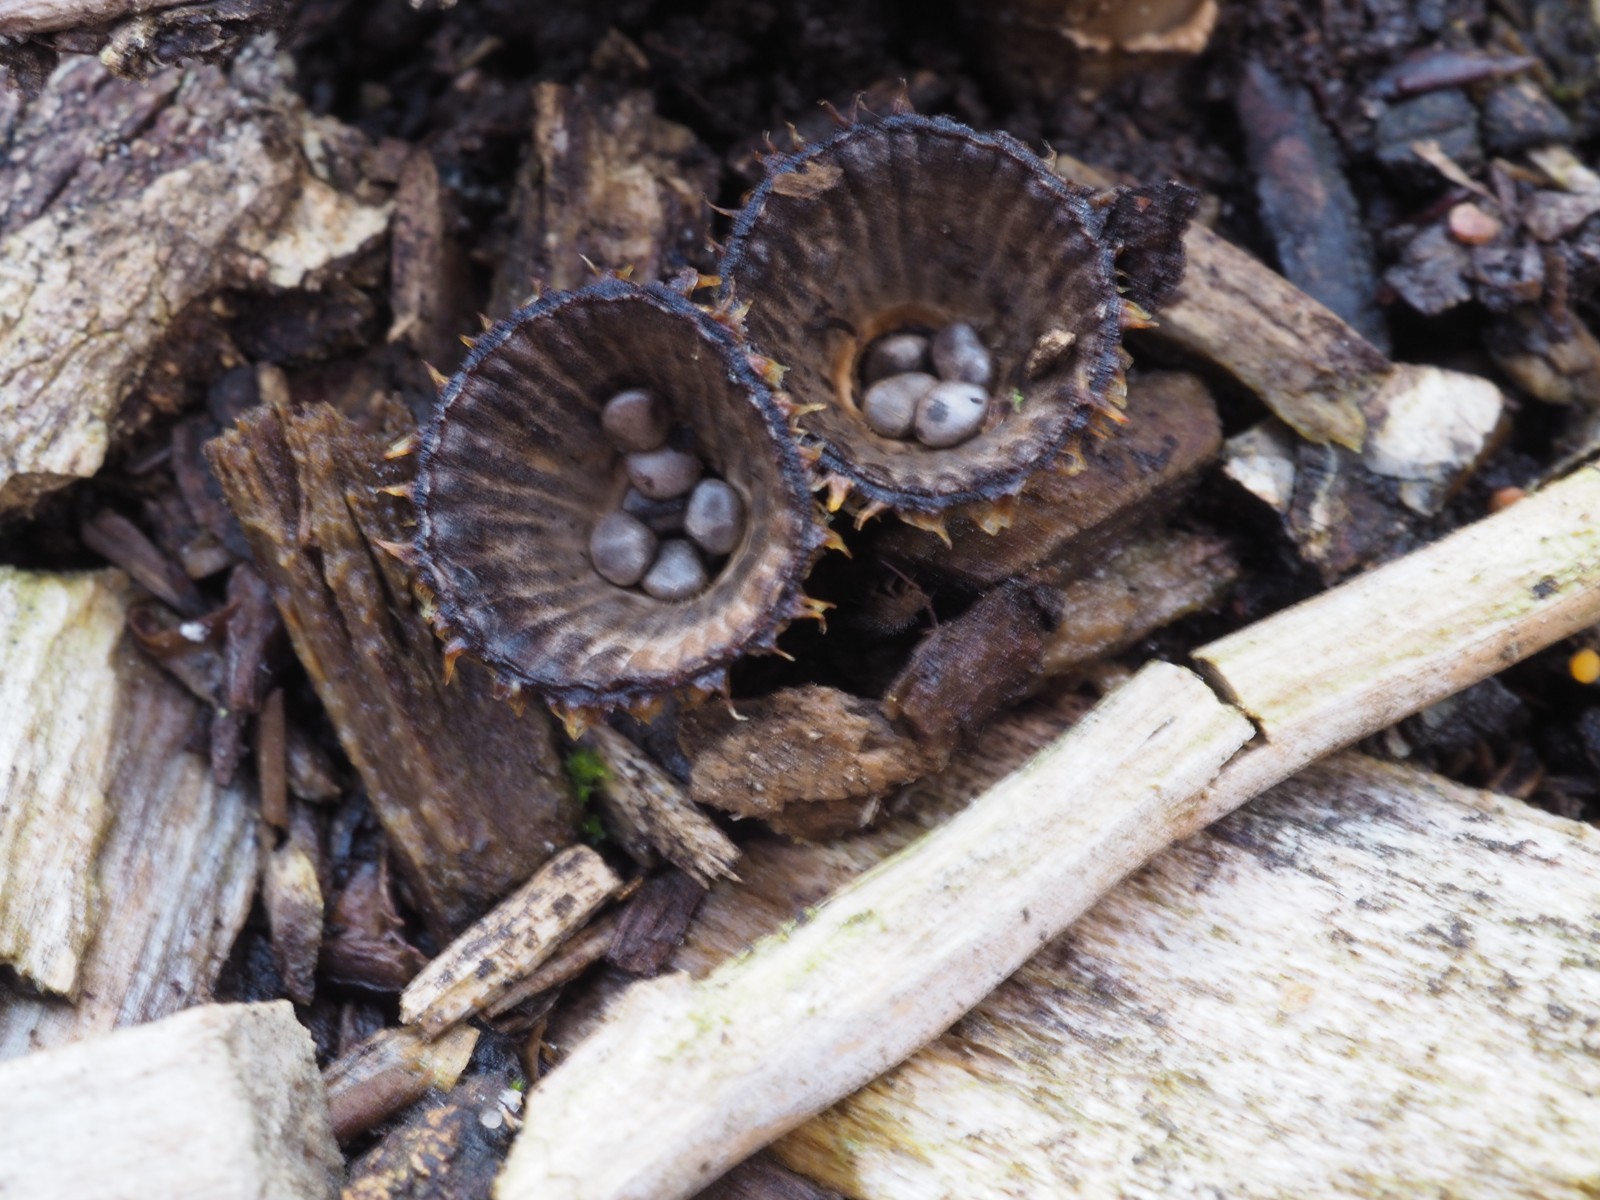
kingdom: Fungi
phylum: Basidiomycota
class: Agaricomycetes
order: Agaricales
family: Agaricaceae
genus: Cyathus
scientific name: Cyathus striatus
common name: stribet redesvamp
